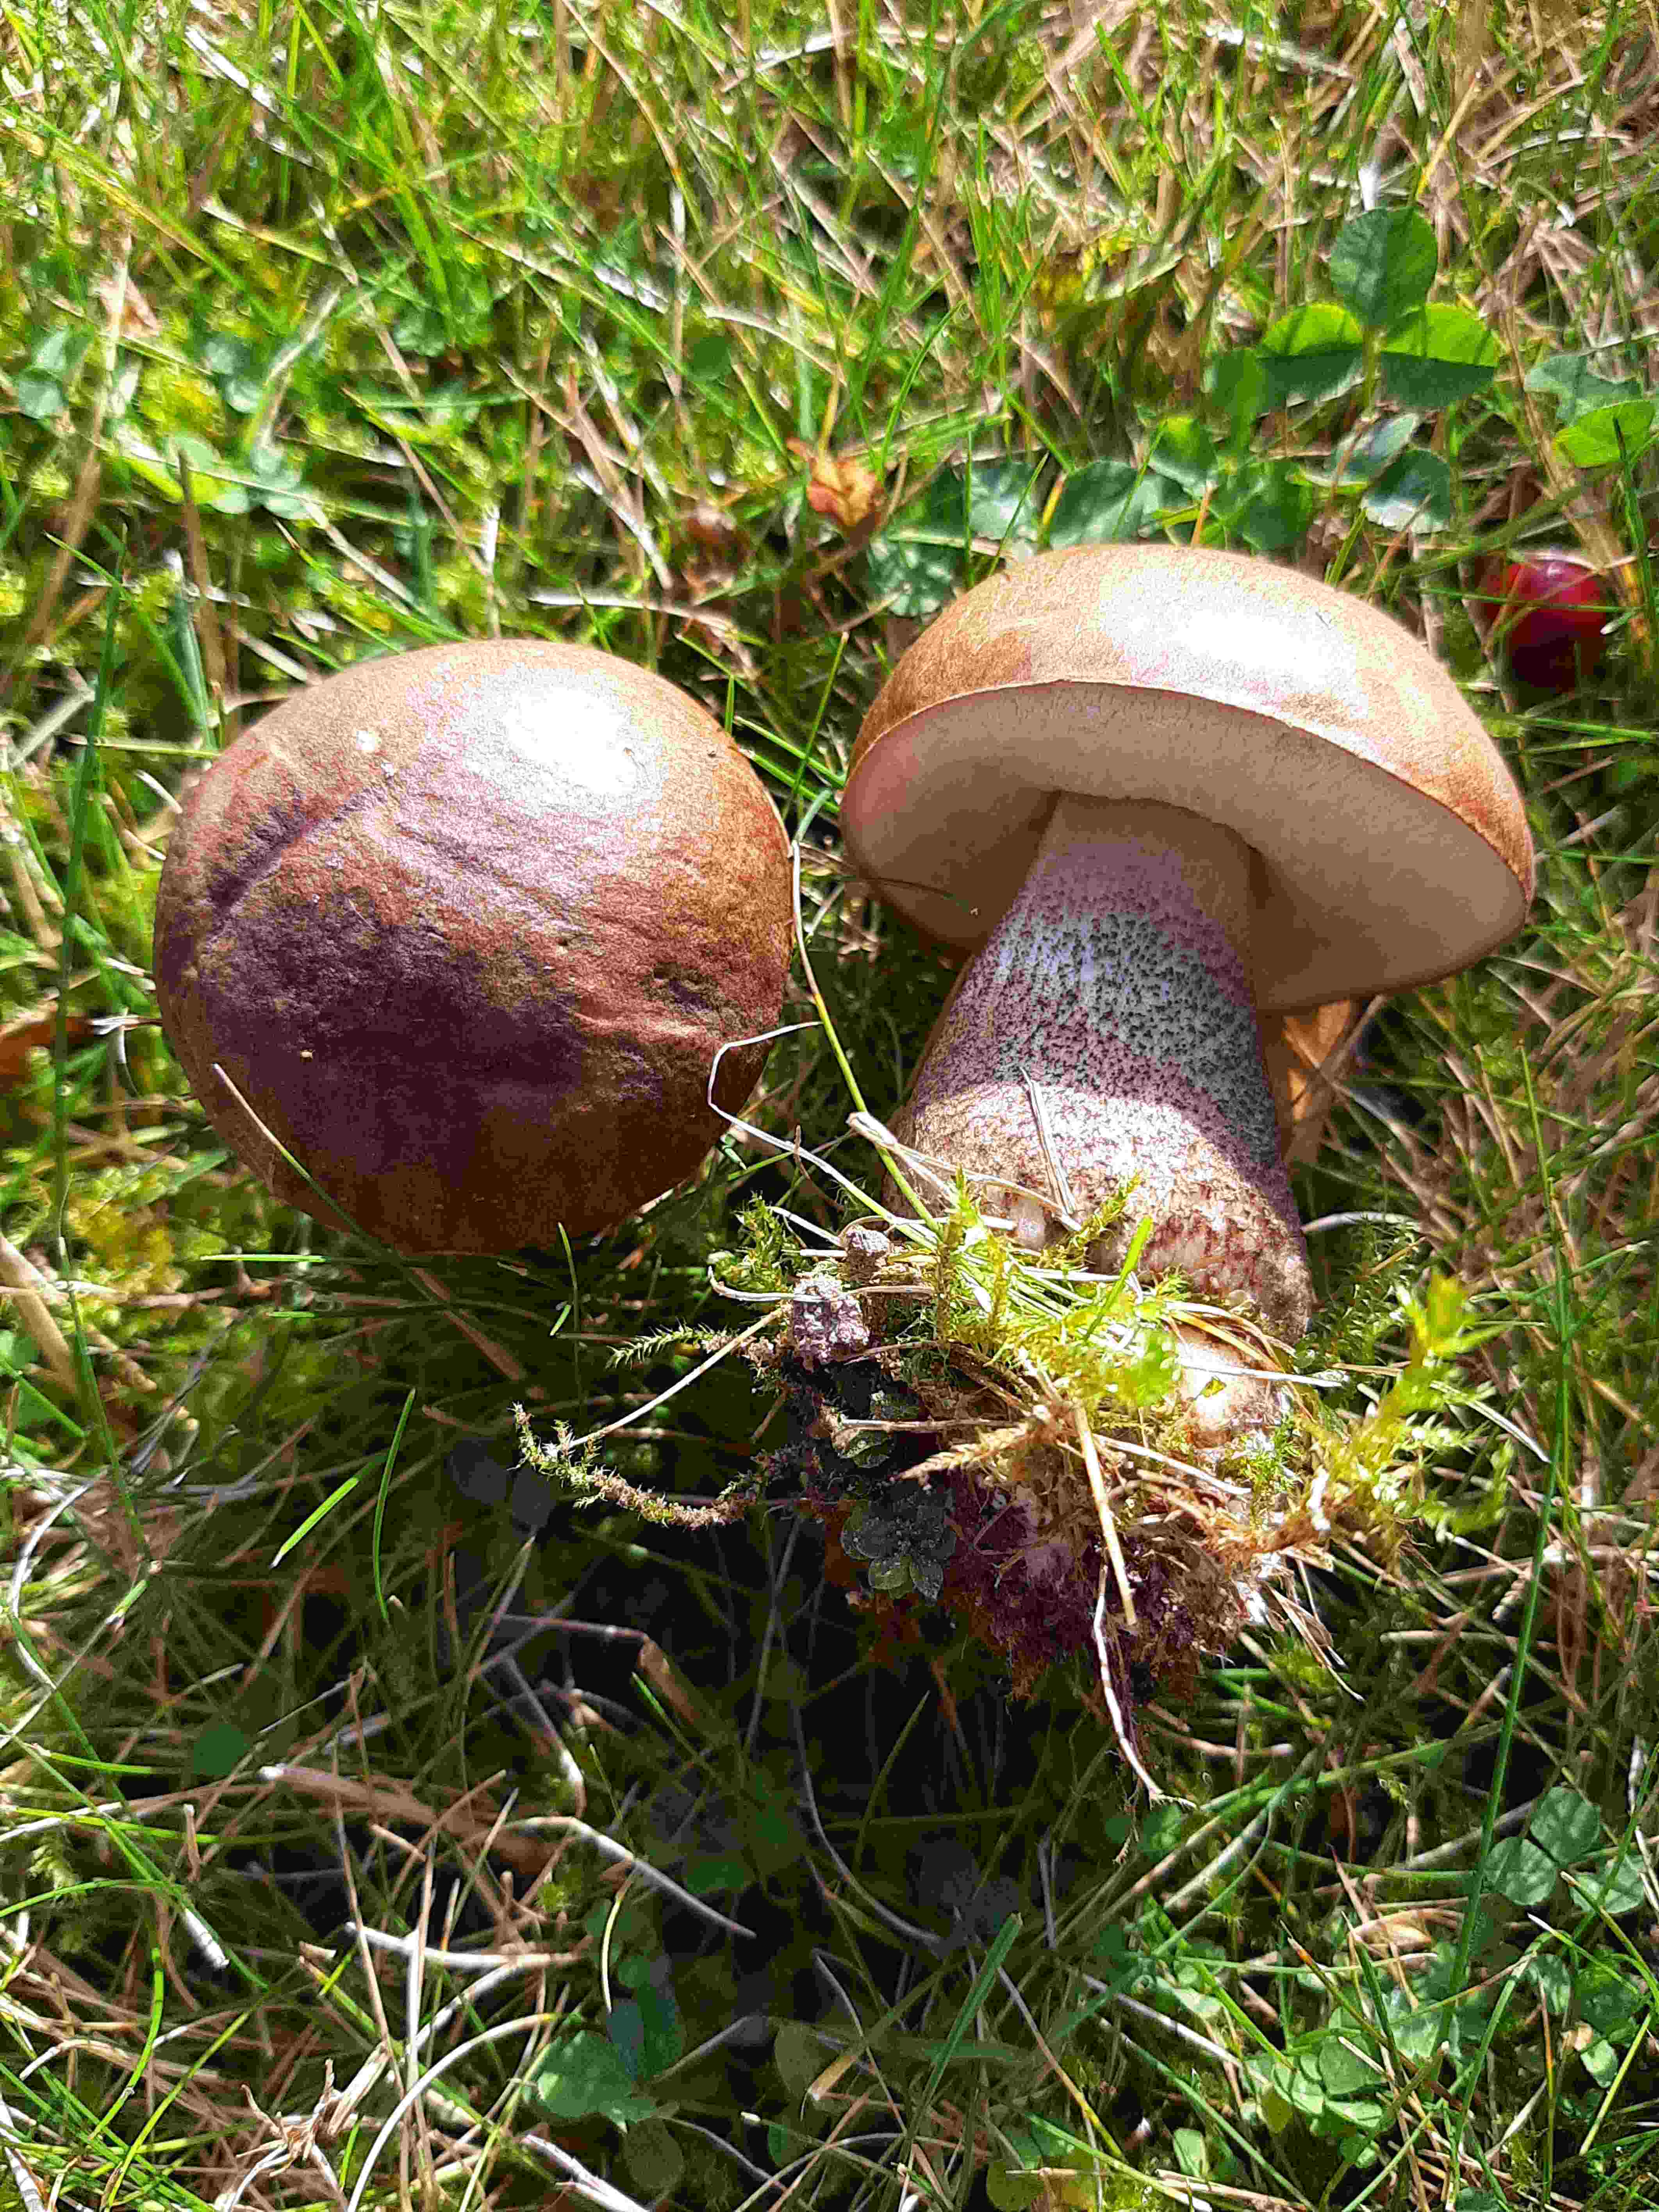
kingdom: Fungi
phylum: Basidiomycota
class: Agaricomycetes
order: Boletales
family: Boletaceae
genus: Leccinum
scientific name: Leccinum scabrum
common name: brun skælrørhat
